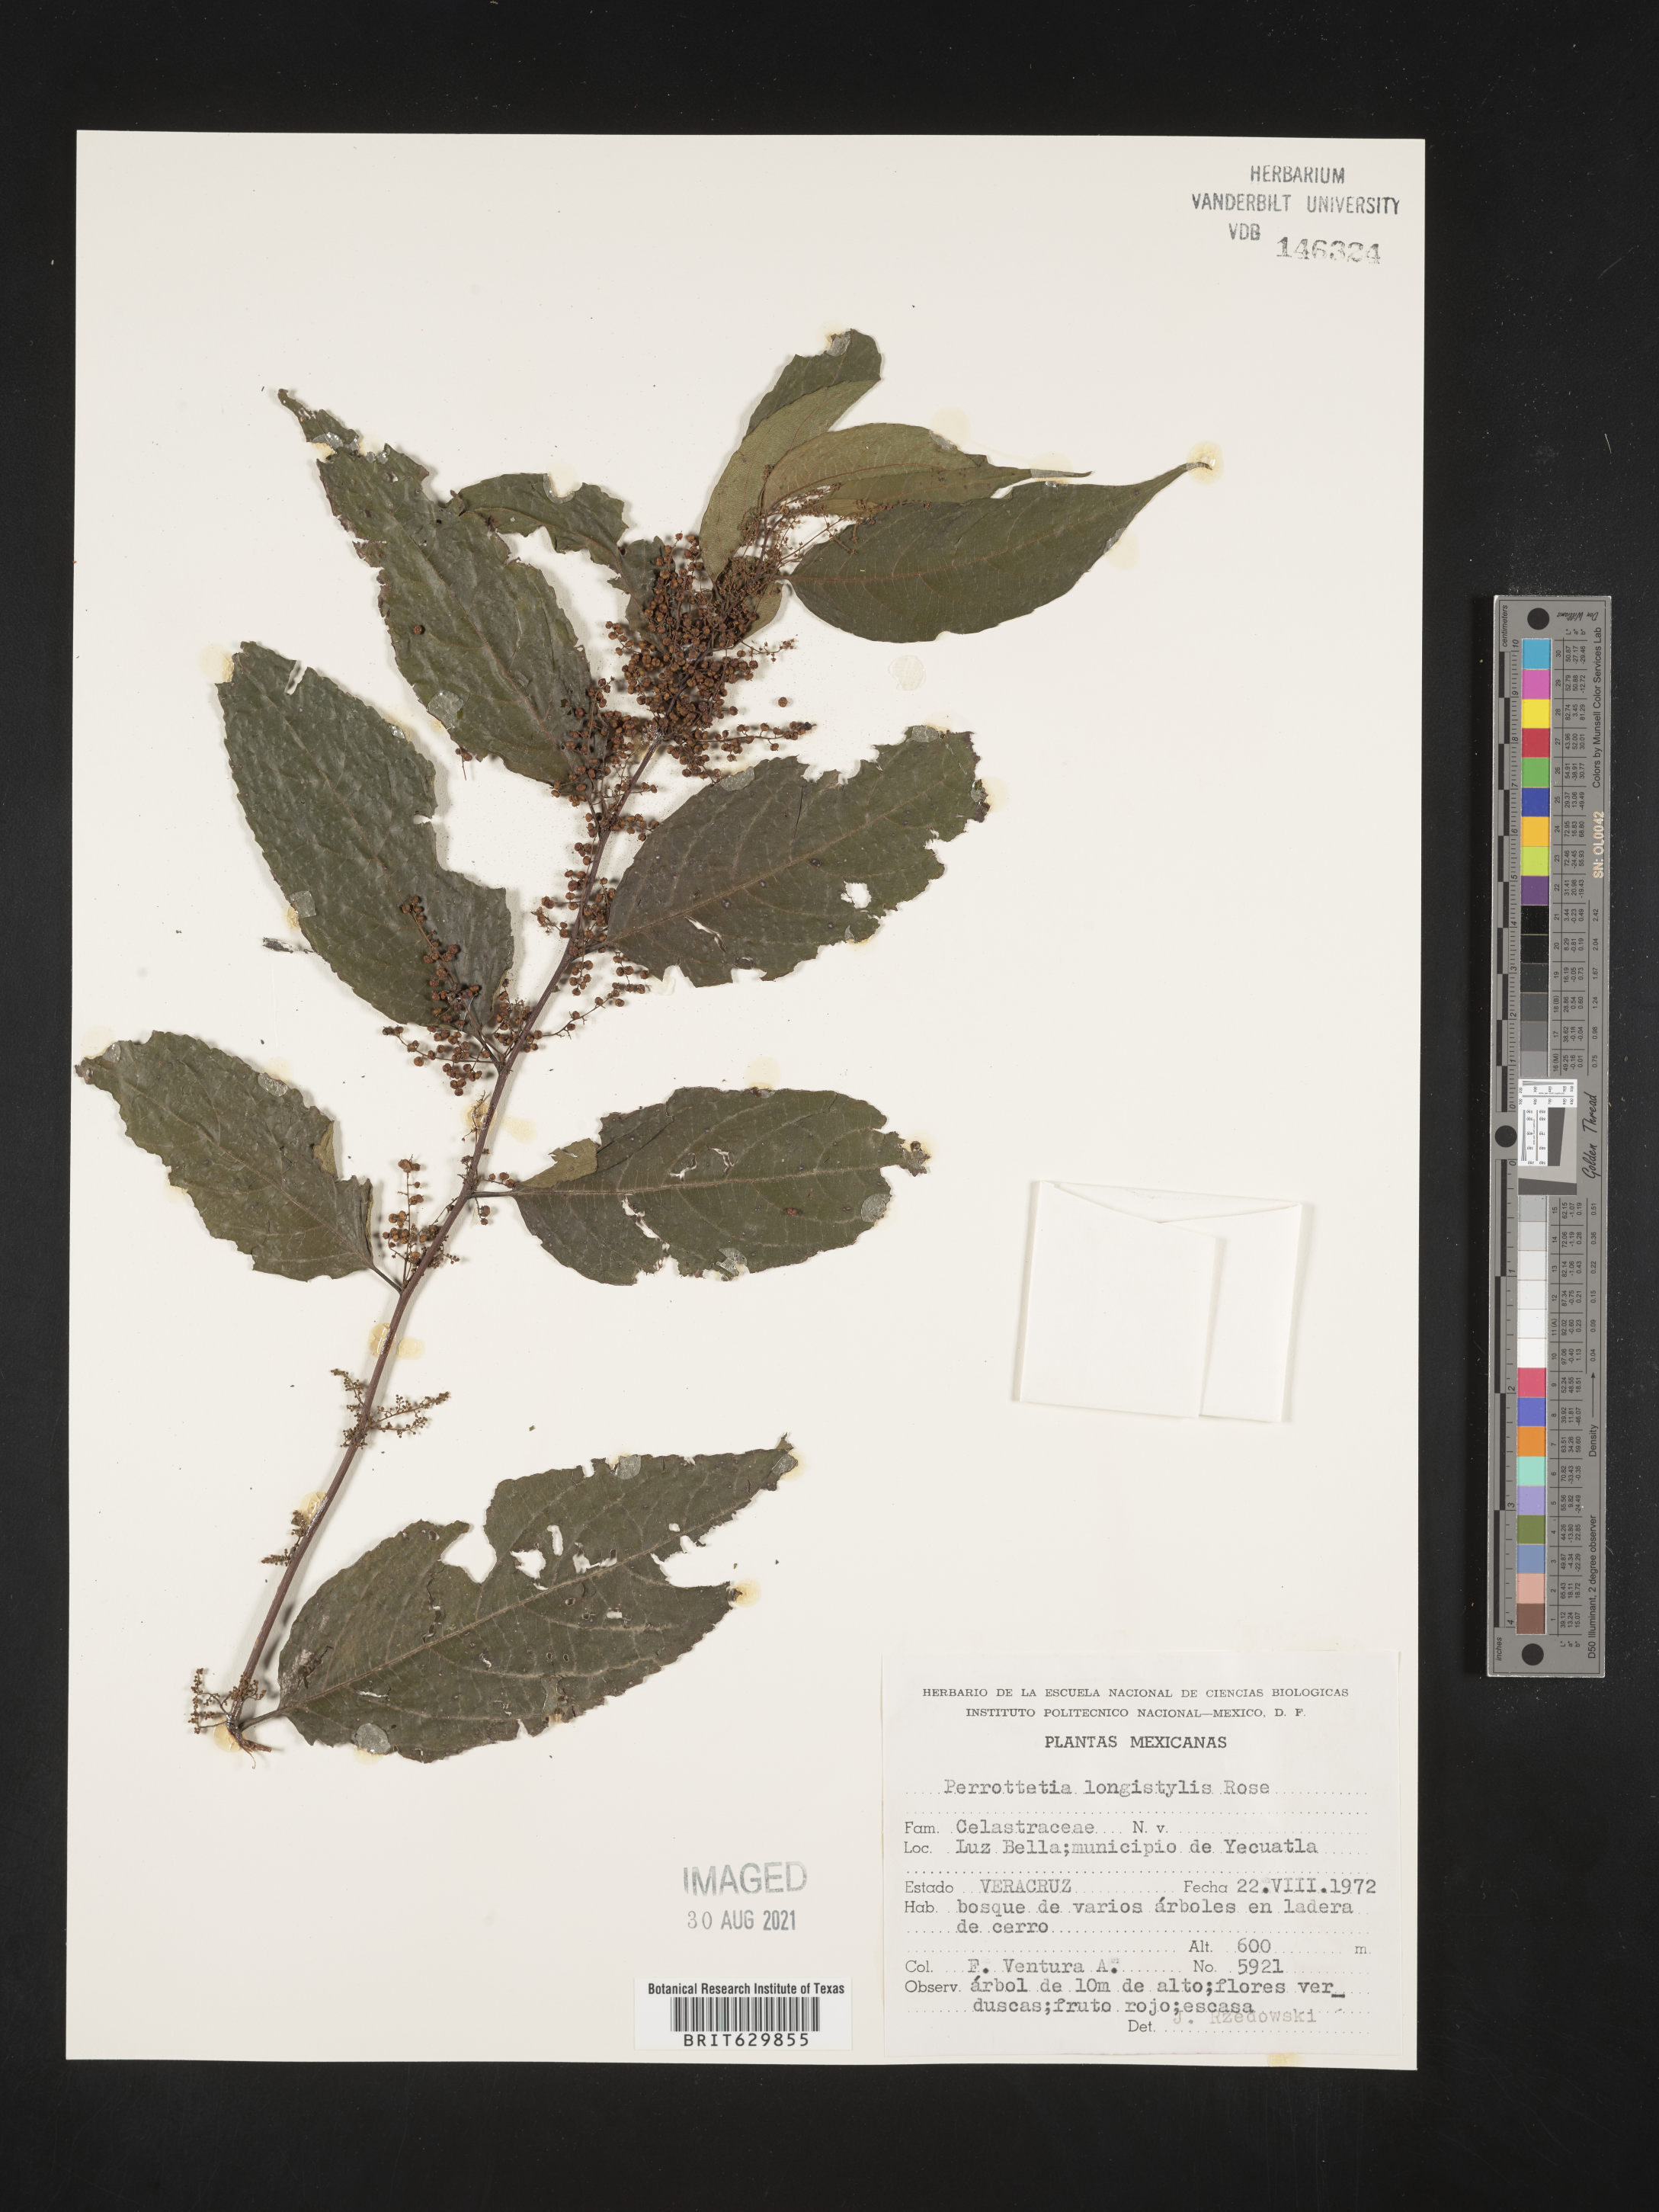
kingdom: Plantae
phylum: Tracheophyta
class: Magnoliopsida
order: Huerteales
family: Dipentodontaceae
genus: Perrottetia
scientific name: Perrottetia
